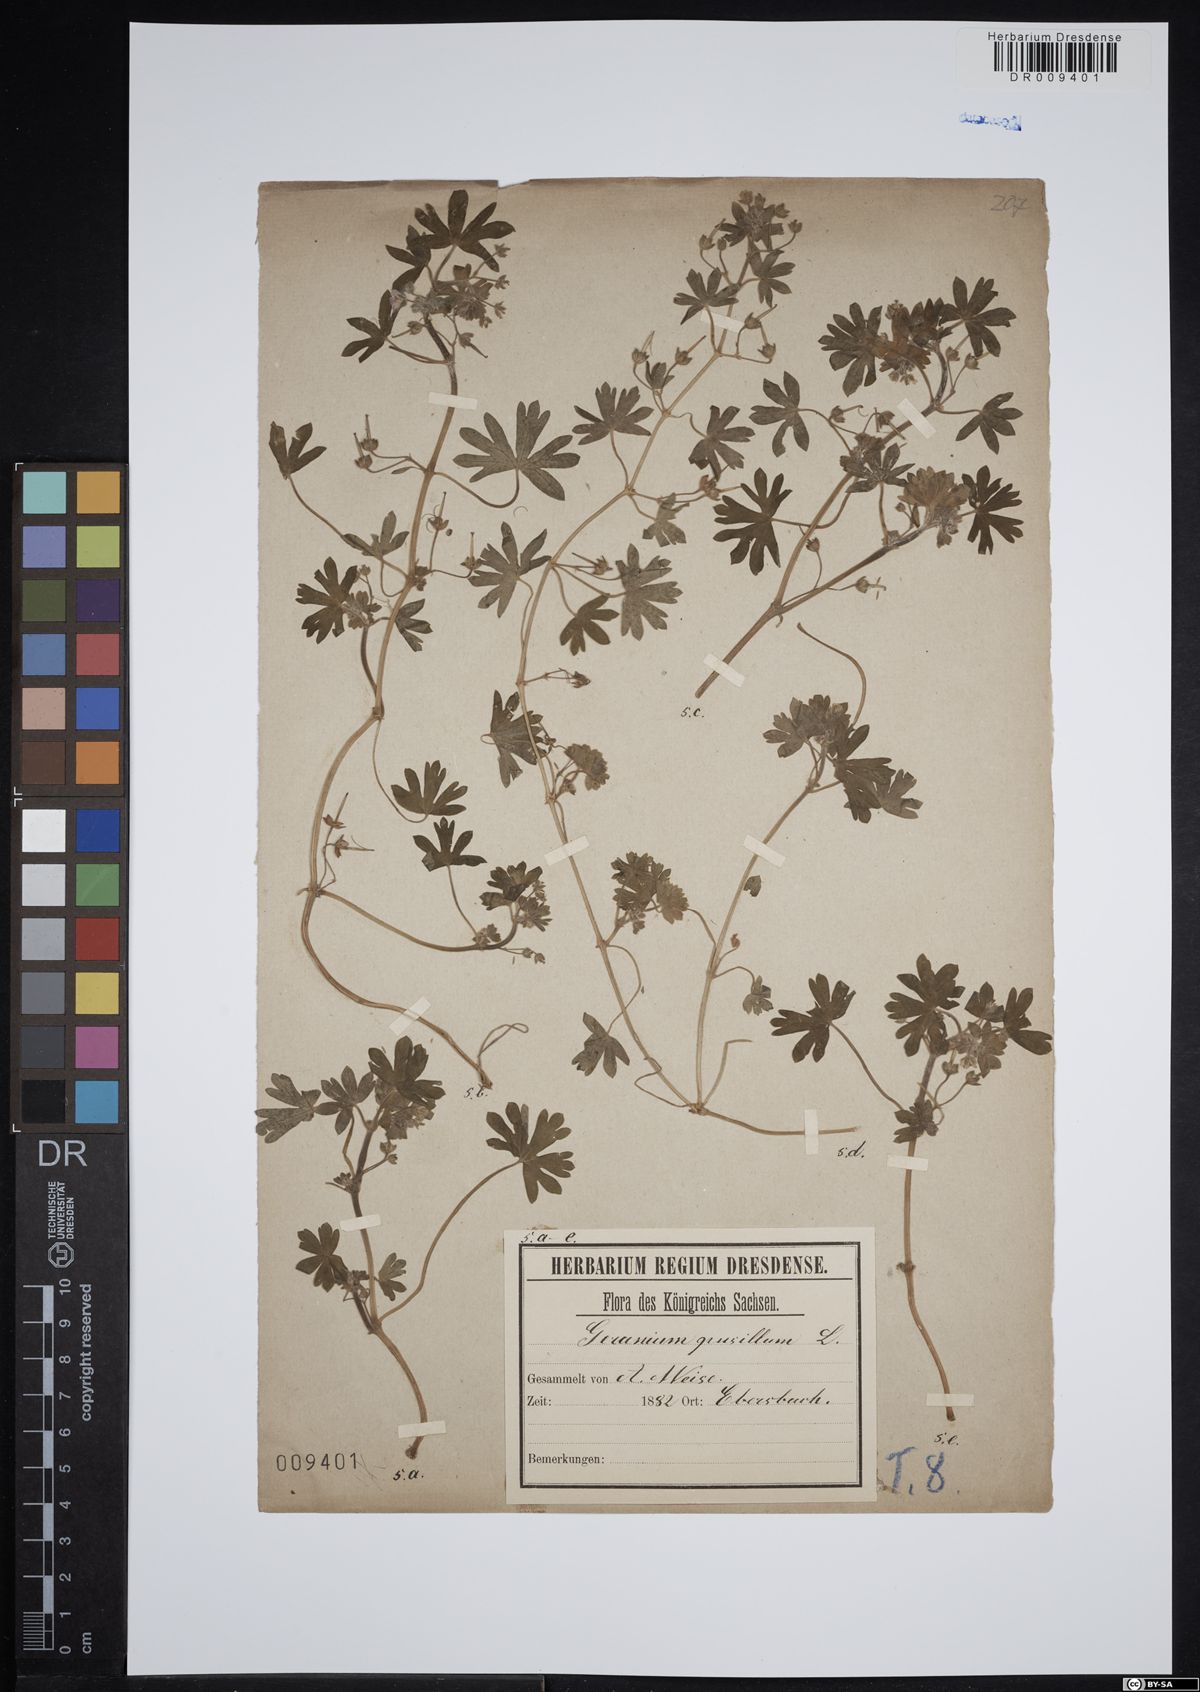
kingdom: Plantae
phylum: Tracheophyta
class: Magnoliopsida
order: Geraniales
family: Geraniaceae
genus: Geranium
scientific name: Geranium pusillum
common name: Small geranium
